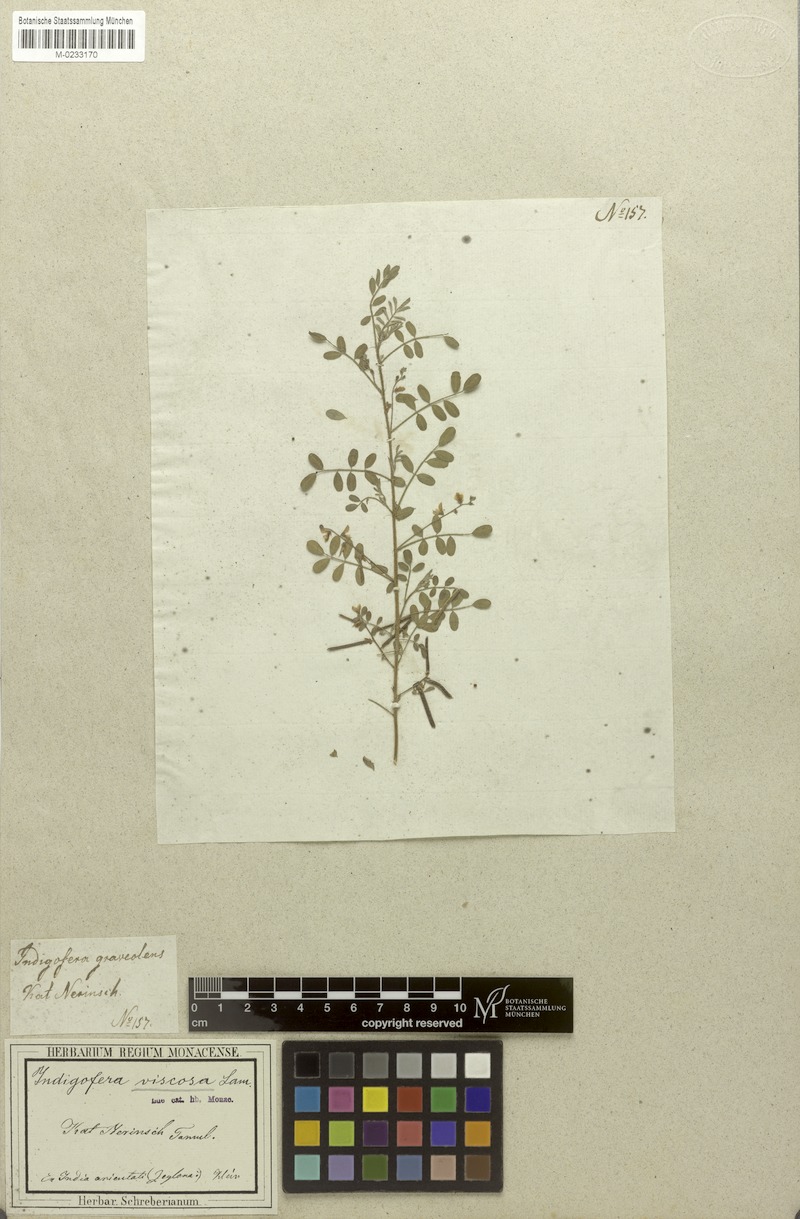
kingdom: Plantae
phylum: Tracheophyta
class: Magnoliopsida
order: Fabales
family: Fabaceae
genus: Indigofera
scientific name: Indigofera colutea
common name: Rusty indigo
